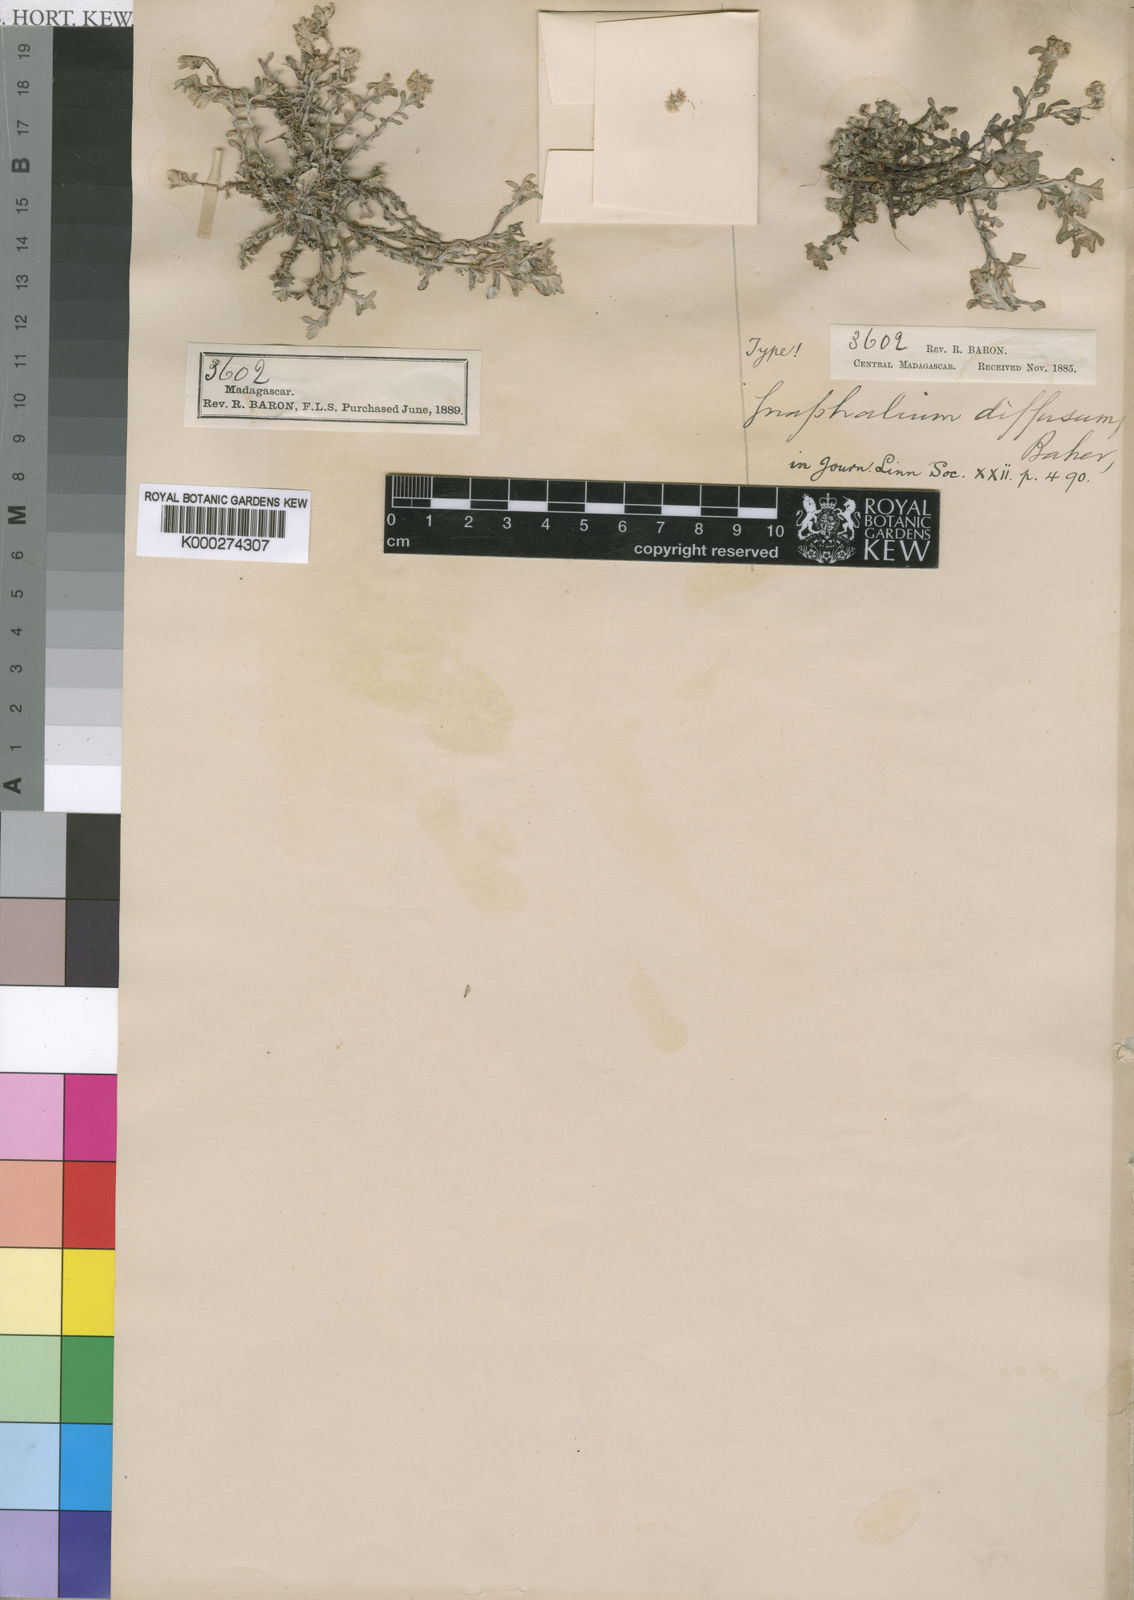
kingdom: Plantae
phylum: Tracheophyta
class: Magnoliopsida
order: Asterales
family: Asteraceae
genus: Helichrysum
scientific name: Helichrysum luteoalbum
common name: Daisy
